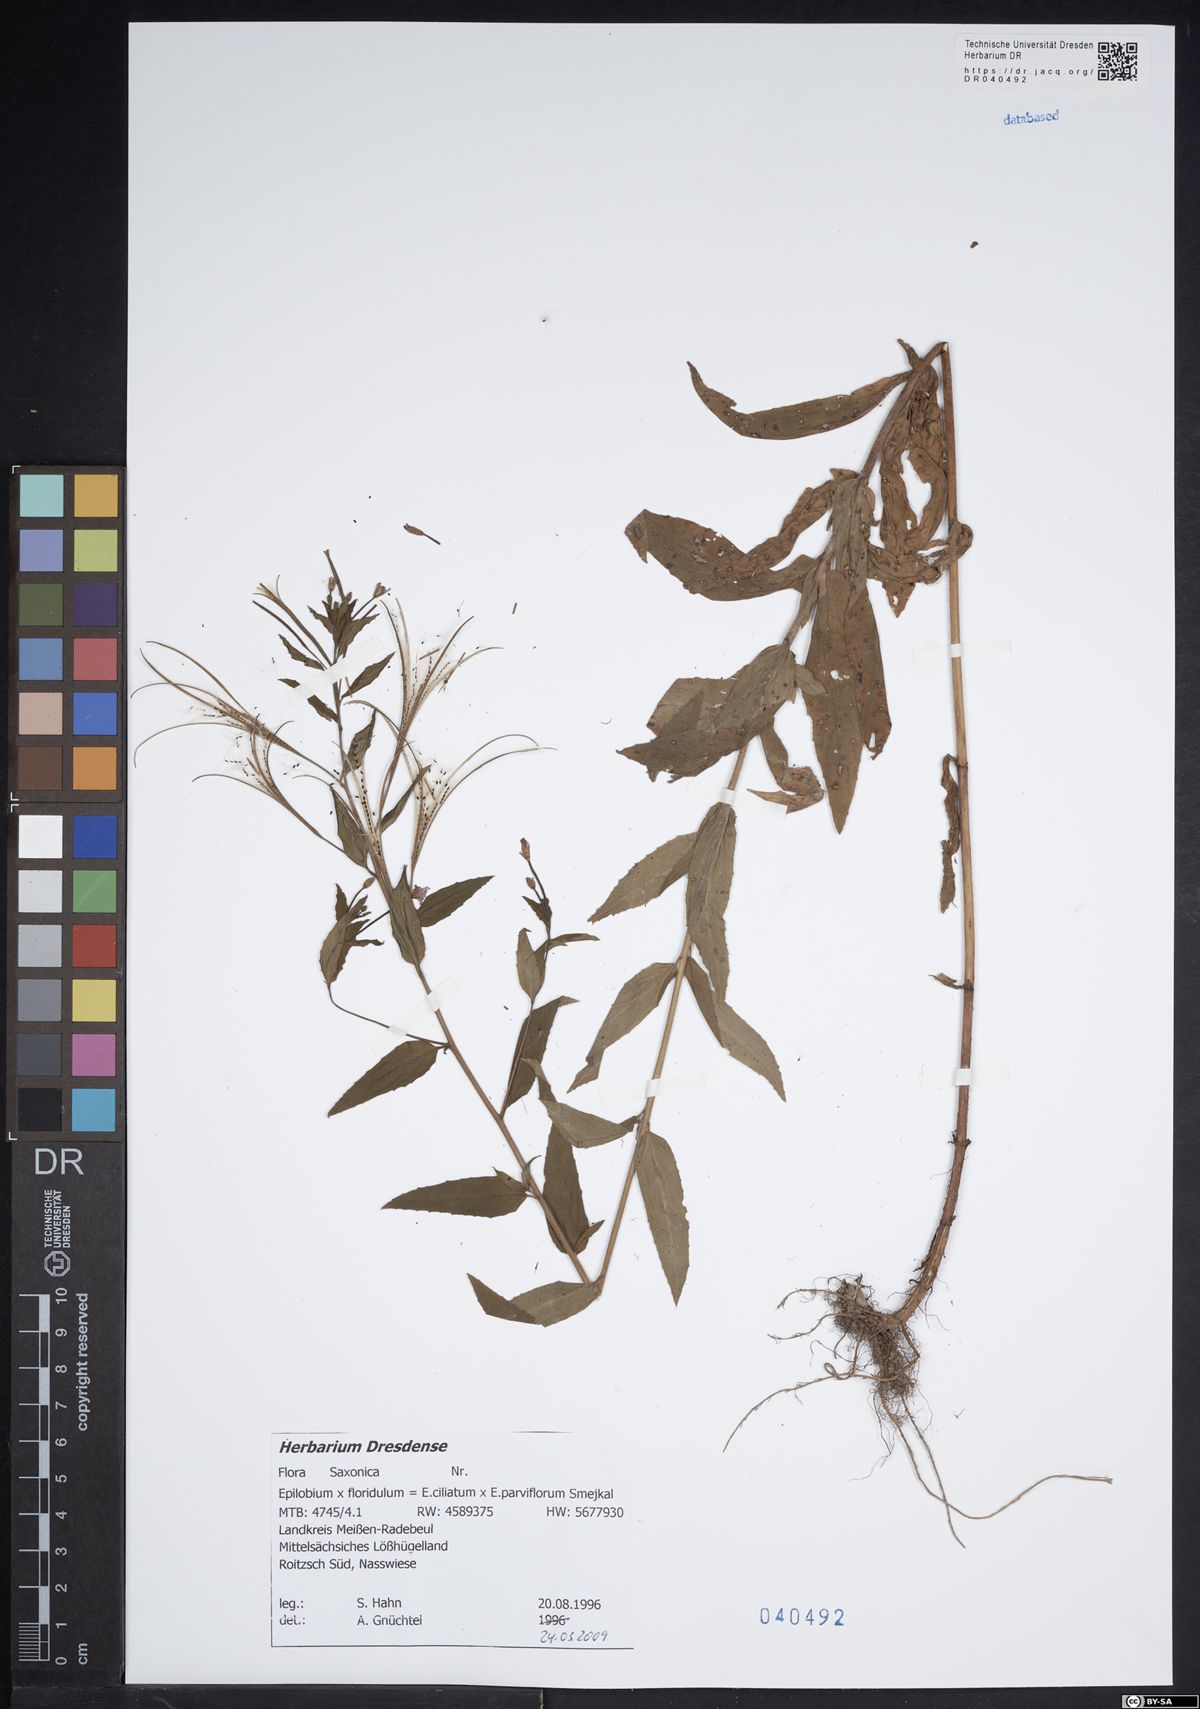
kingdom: Plantae
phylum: Tracheophyta
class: Magnoliopsida
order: Myrtales
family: Onagraceae
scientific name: Onagraceae
